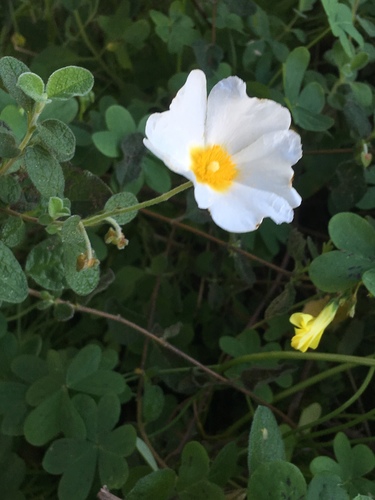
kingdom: Plantae
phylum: Tracheophyta
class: Magnoliopsida
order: Malvales
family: Cistaceae
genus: Cistus
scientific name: Cistus salviifolius
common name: Salvia cistus
